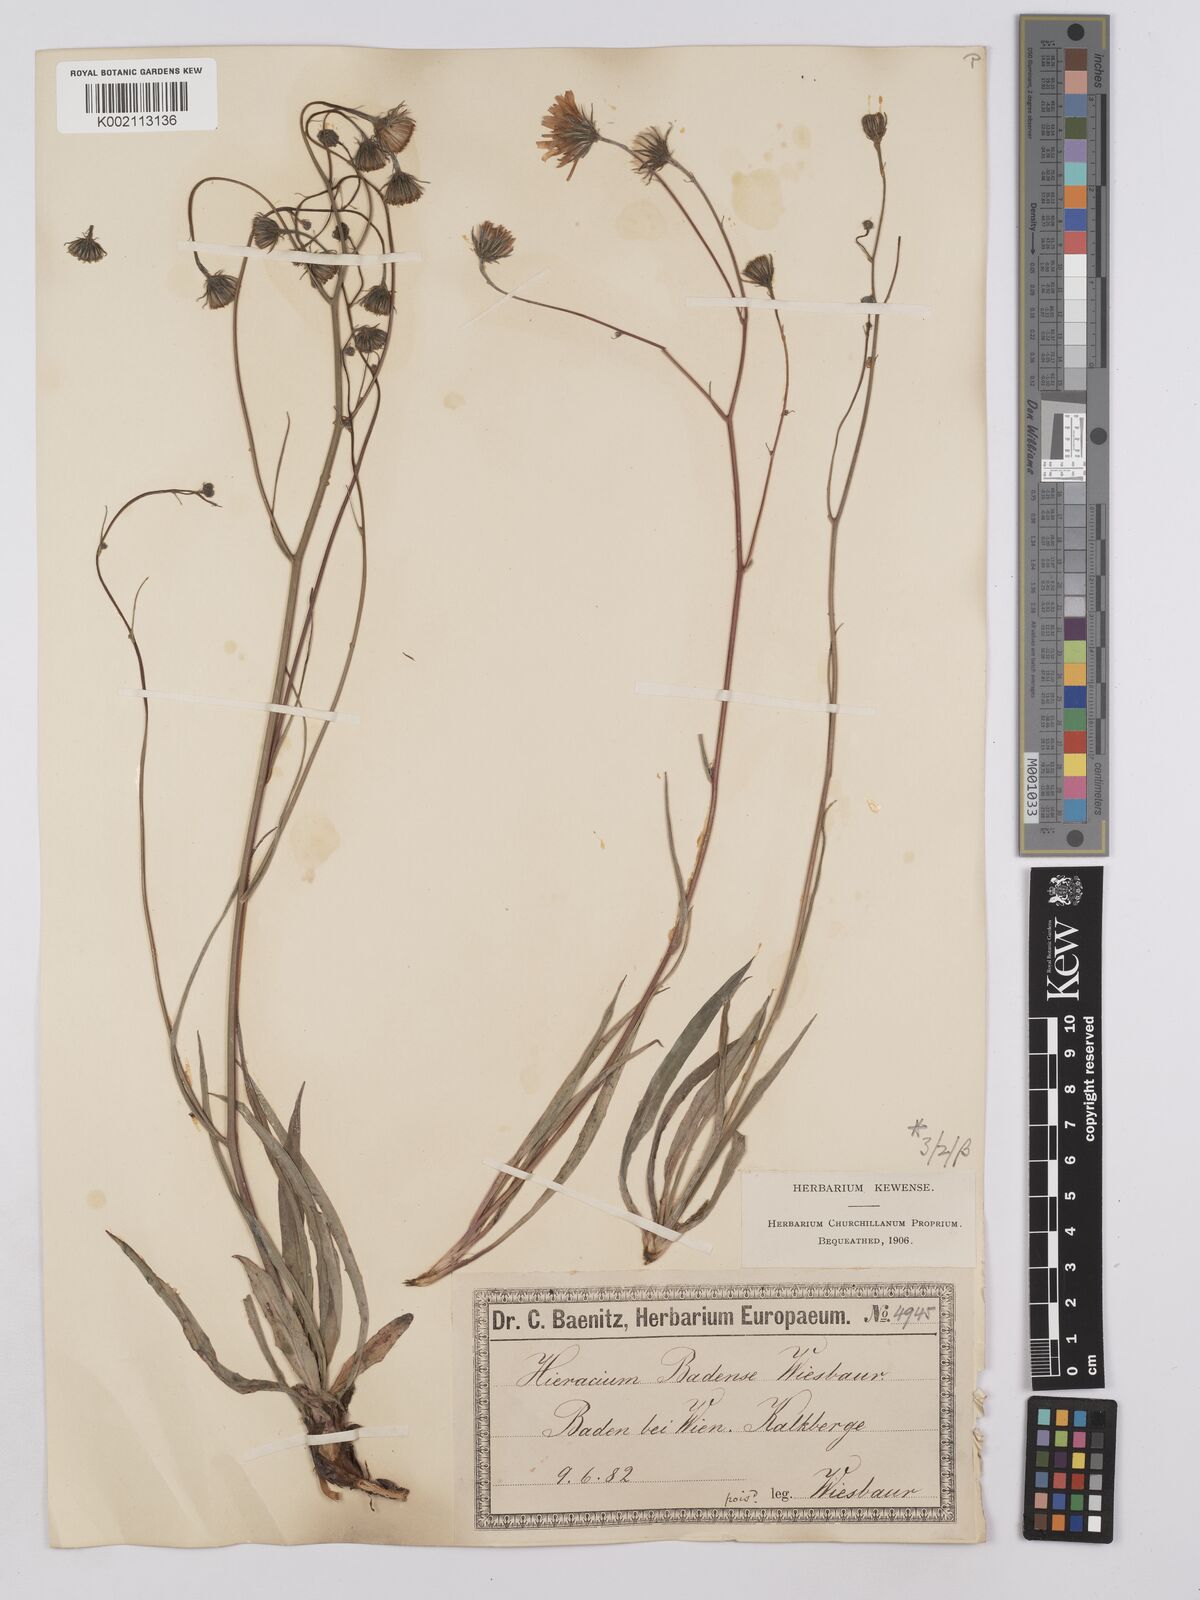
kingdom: Plantae
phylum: Tracheophyta
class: Magnoliopsida
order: Asterales
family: Asteraceae
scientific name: Asteraceae
